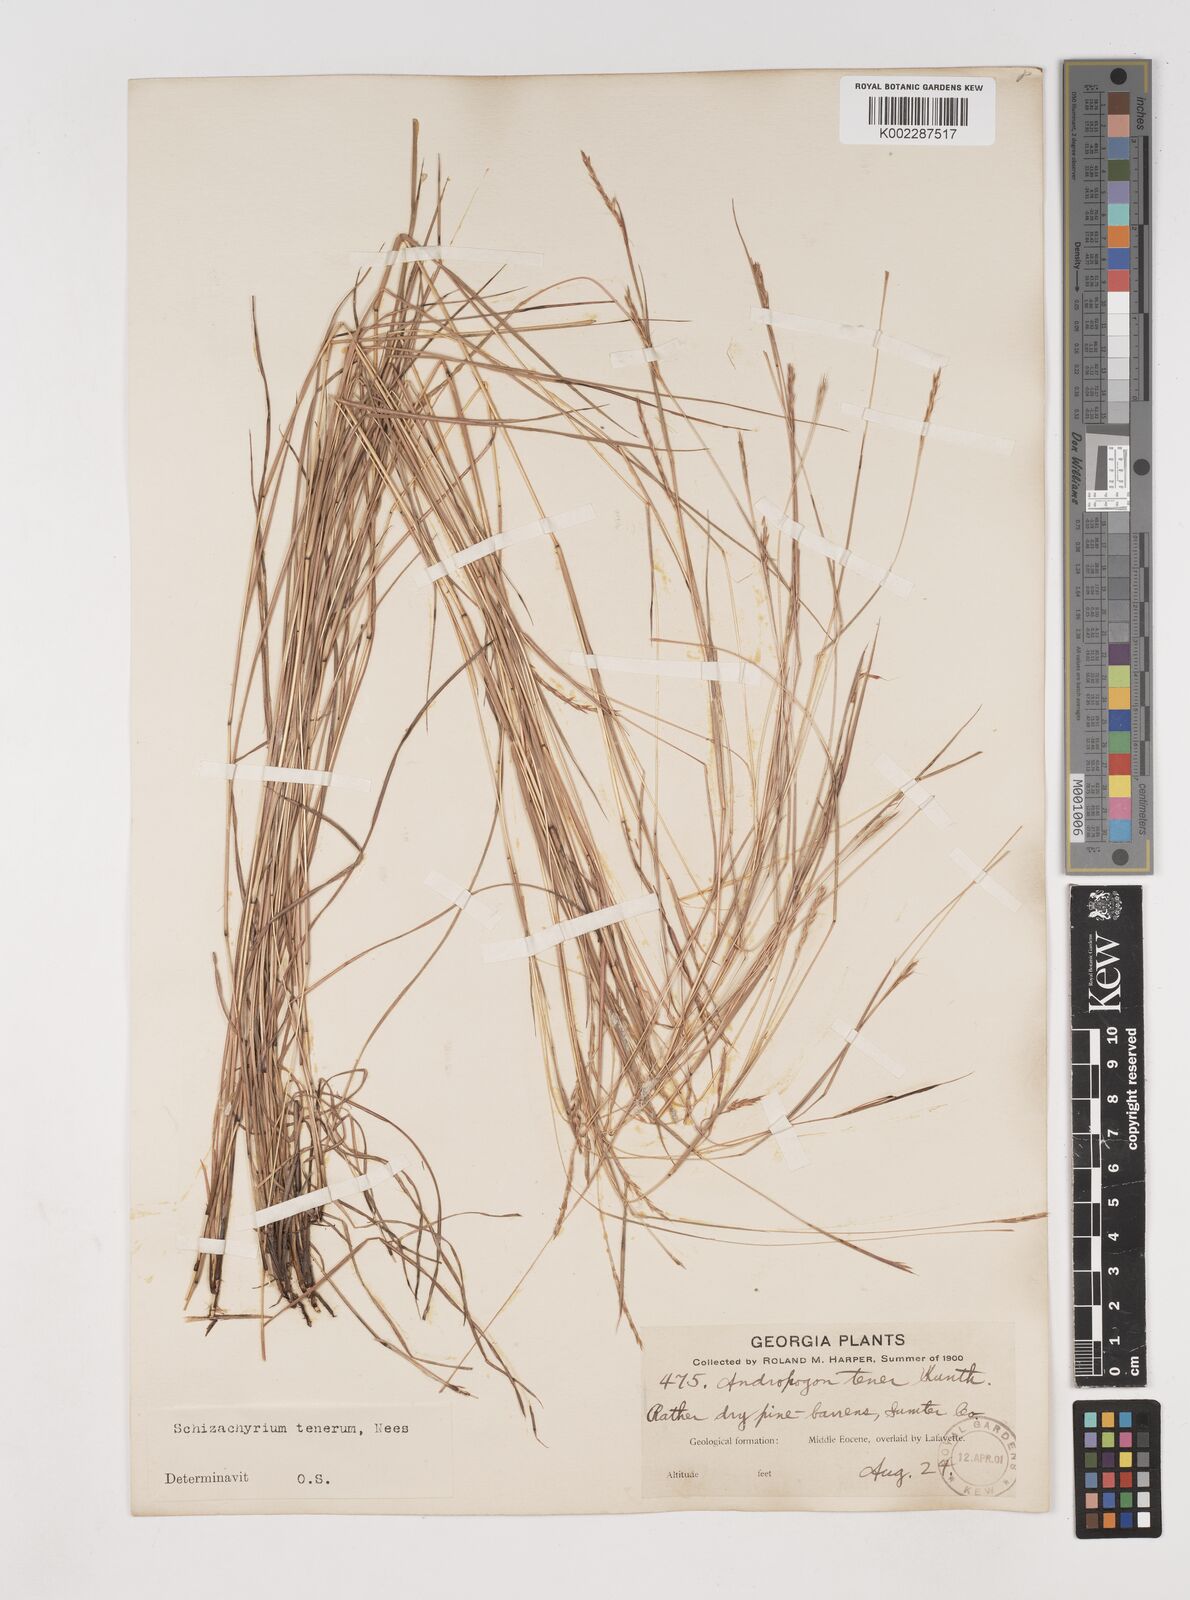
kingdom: Plantae
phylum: Tracheophyta
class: Liliopsida
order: Poales
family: Poaceae
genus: Andropogon
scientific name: Andropogon tener
